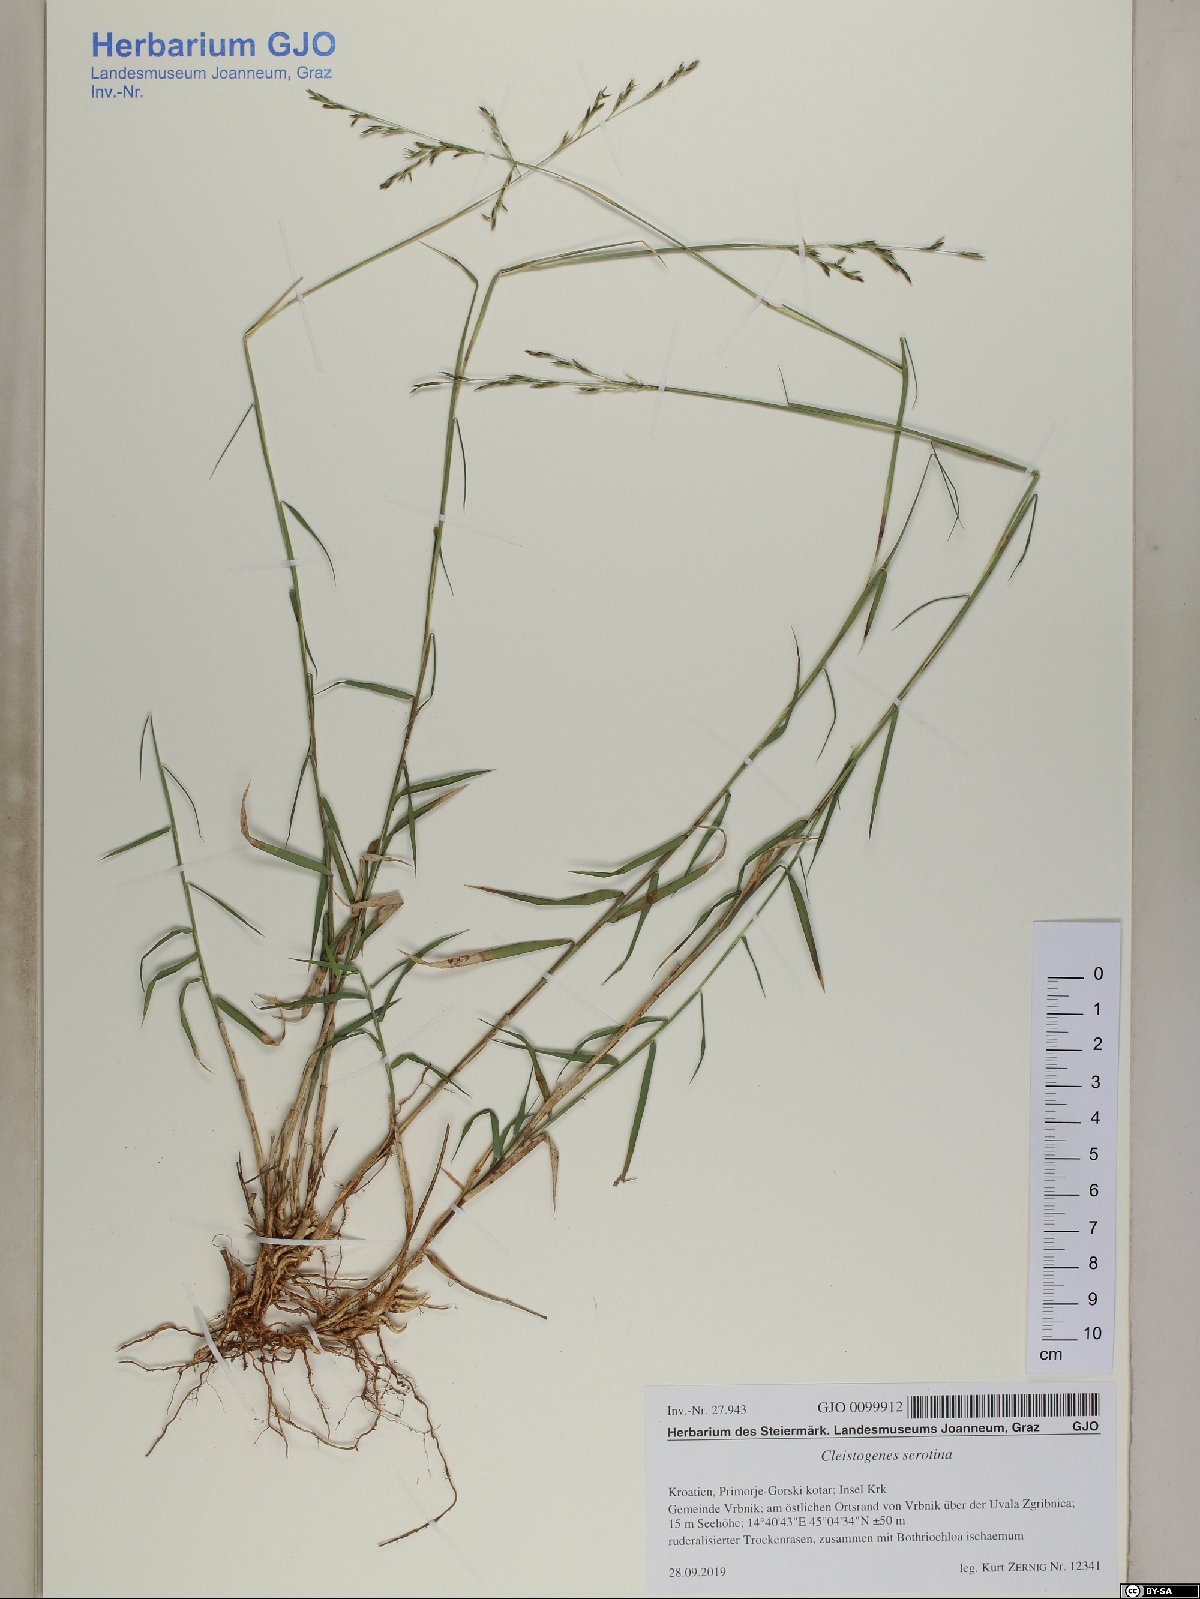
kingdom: Plantae
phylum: Tracheophyta
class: Liliopsida
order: Poales
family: Poaceae
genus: Cleistogenes
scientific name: Cleistogenes serotina
